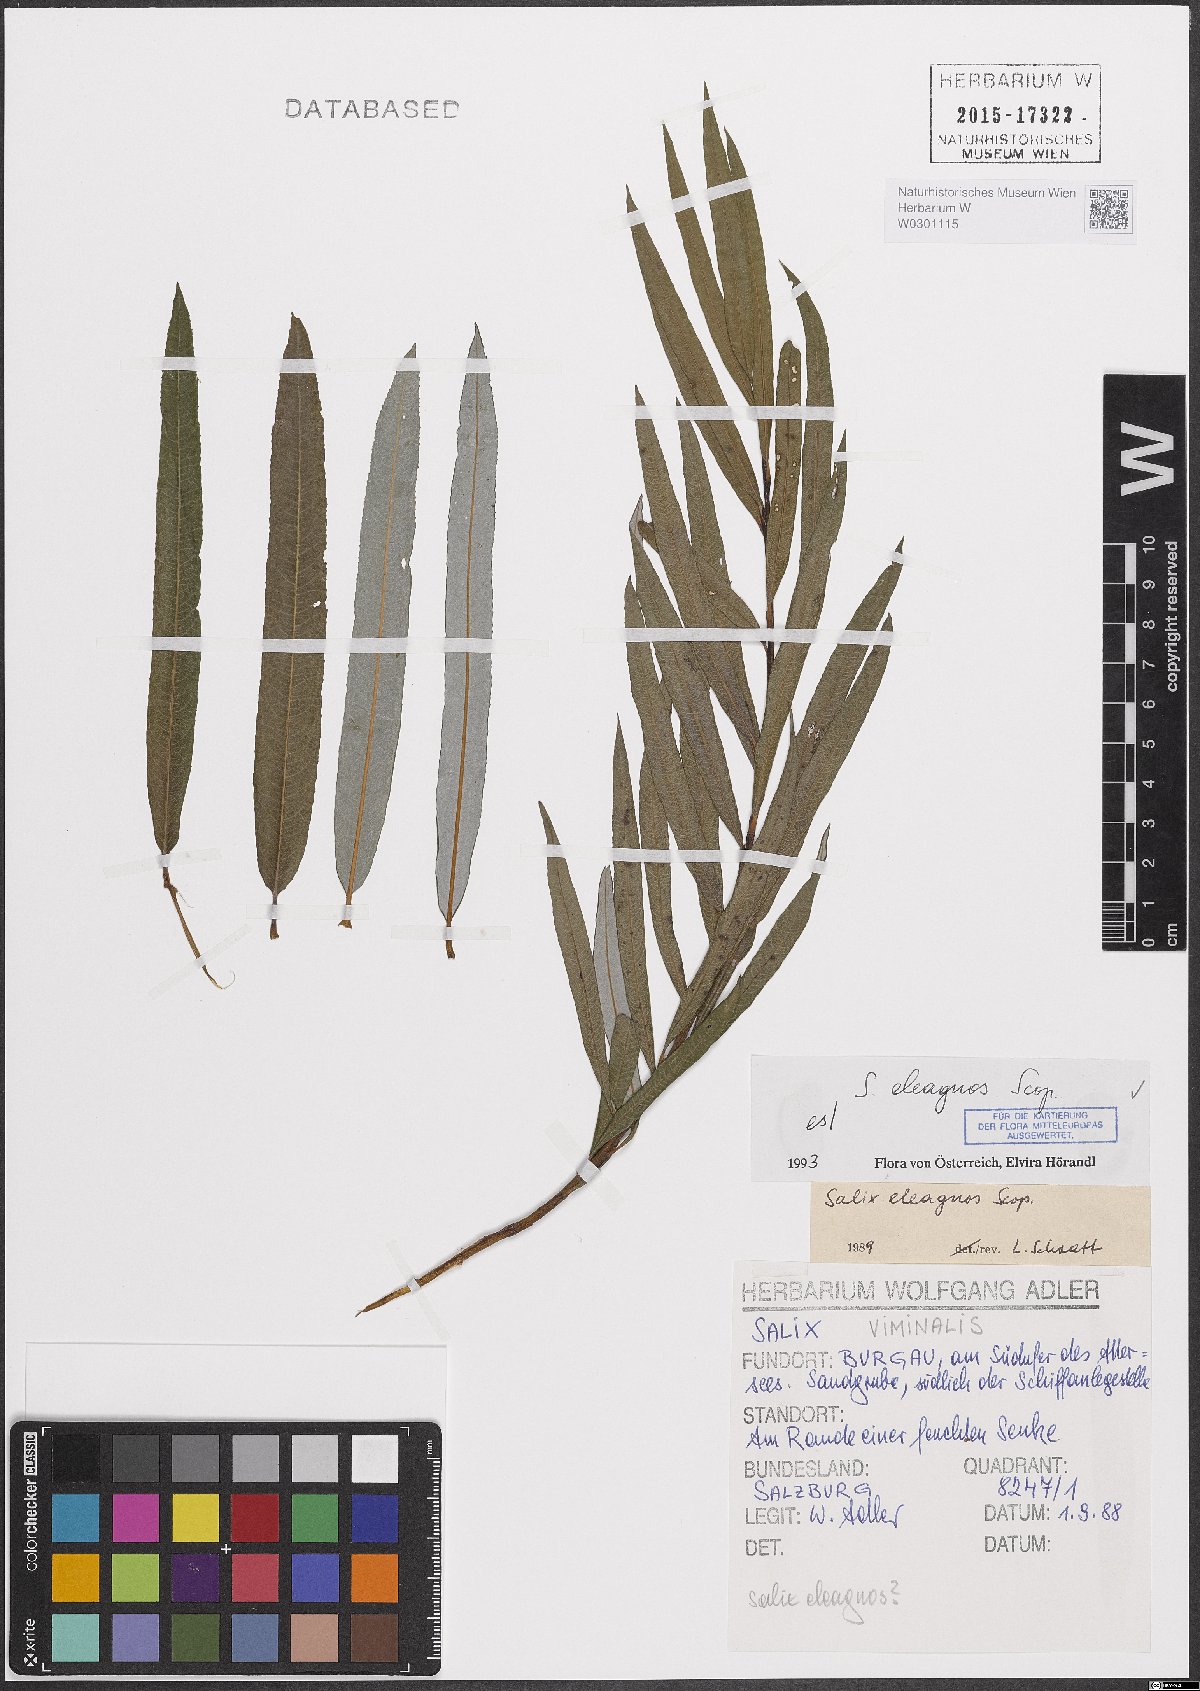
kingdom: Plantae
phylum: Tracheophyta
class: Magnoliopsida
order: Malpighiales
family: Salicaceae
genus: Salix
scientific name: Salix eleagnos
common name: Elaeagnus willow
